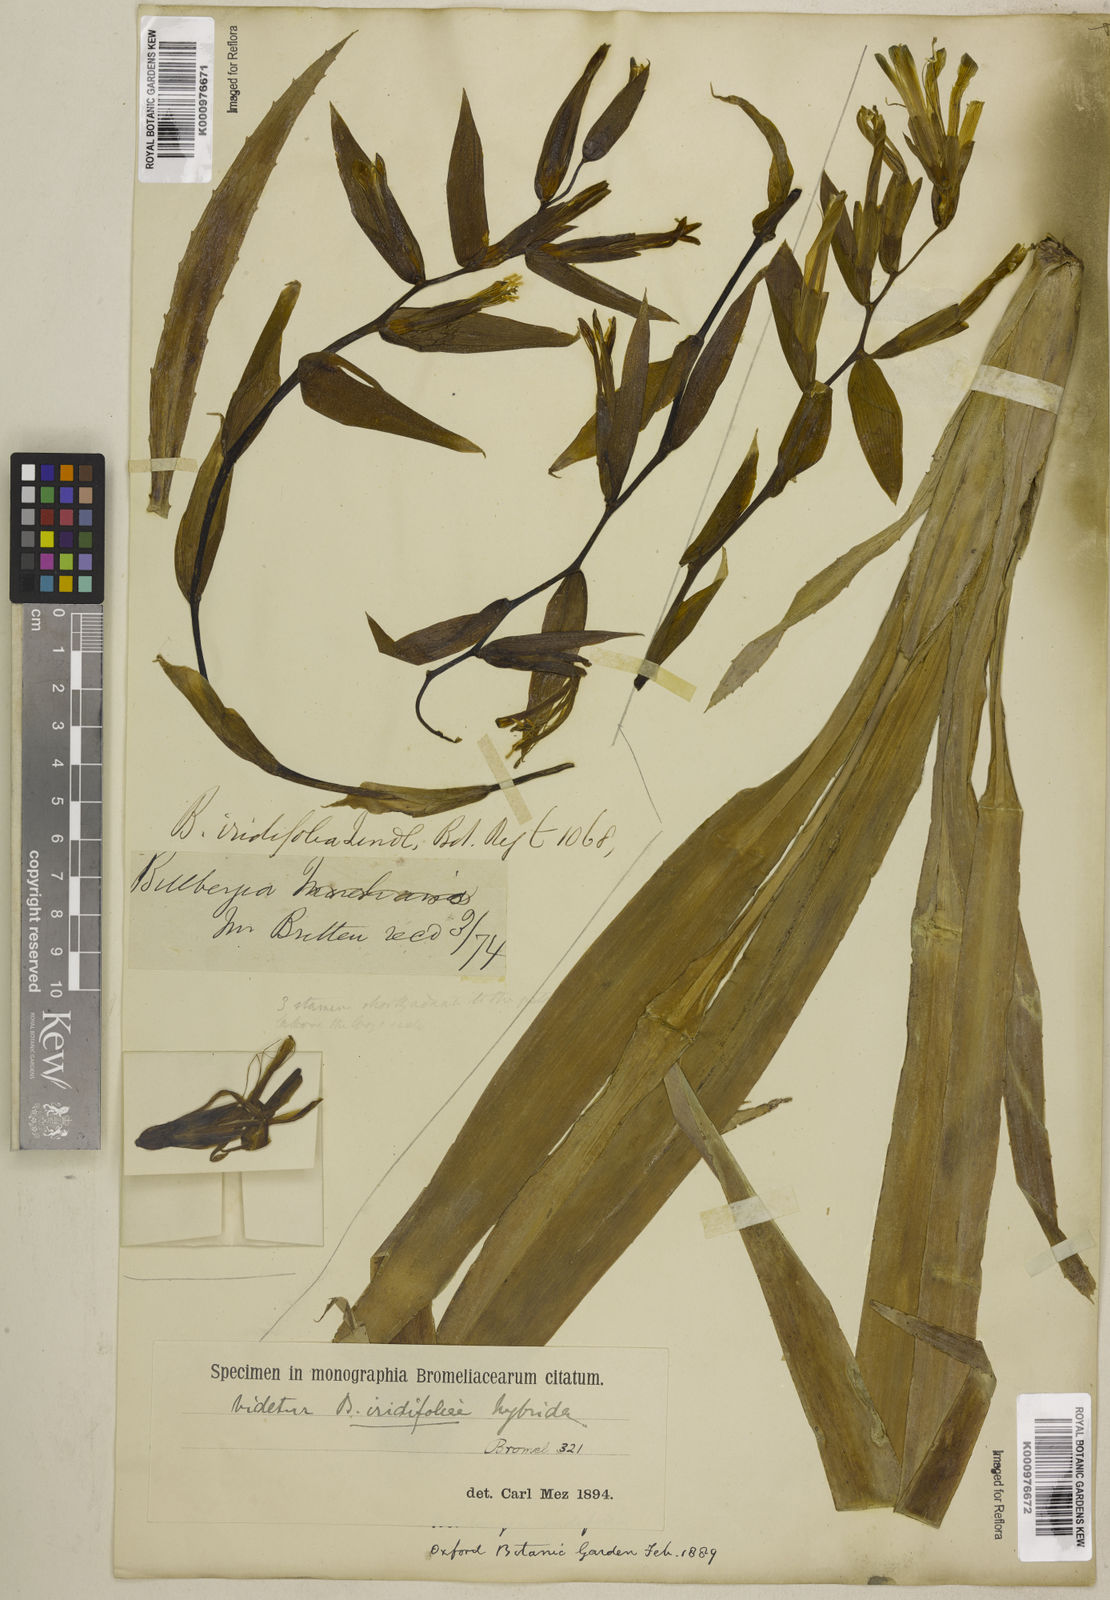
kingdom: Plantae
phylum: Tracheophyta
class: Liliopsida
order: Poales
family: Bromeliaceae
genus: Billbergia
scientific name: Billbergia iridifolia
